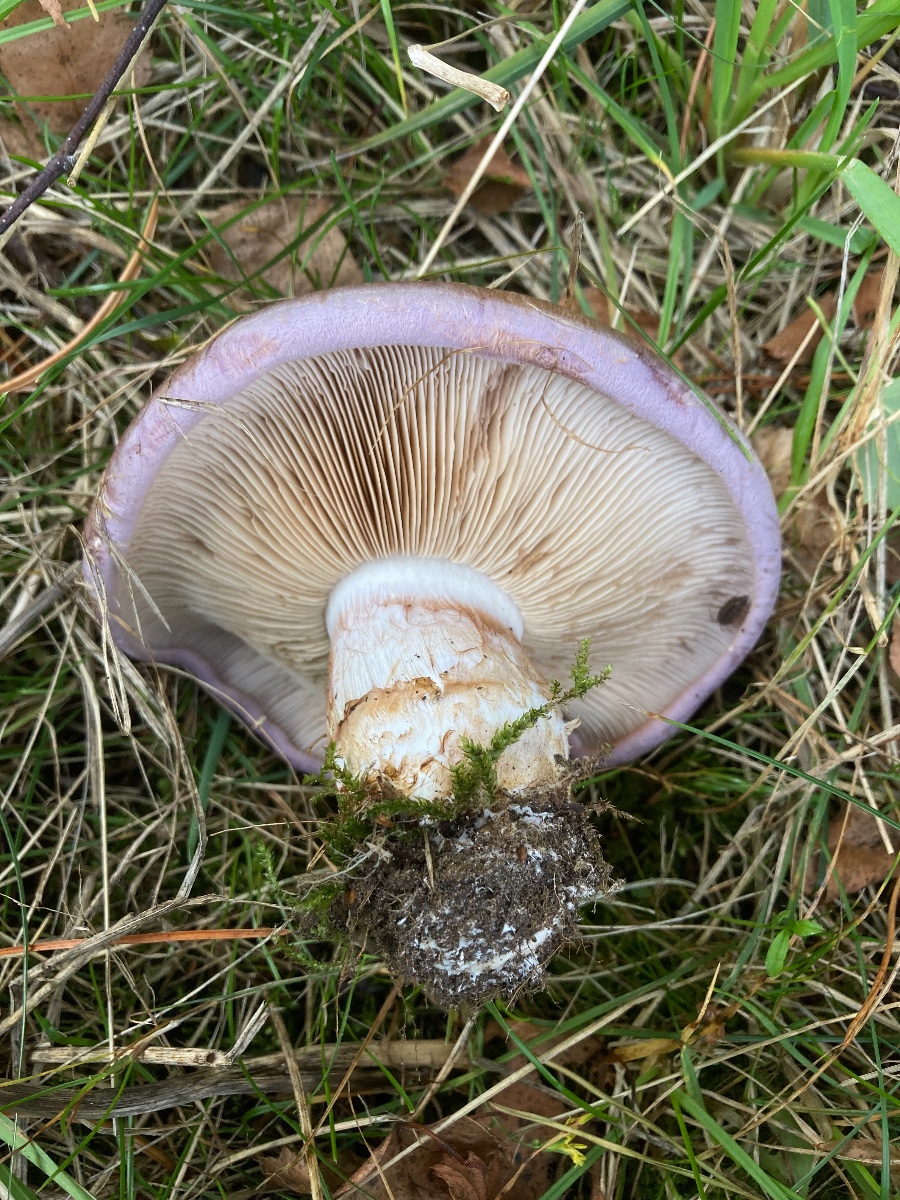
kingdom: Fungi
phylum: Basidiomycota
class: Agaricomycetes
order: Agaricales
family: Cortinariaceae
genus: Phlegmacium
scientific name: Phlegmacium balteatocumatile
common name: violettrådet slørhat
